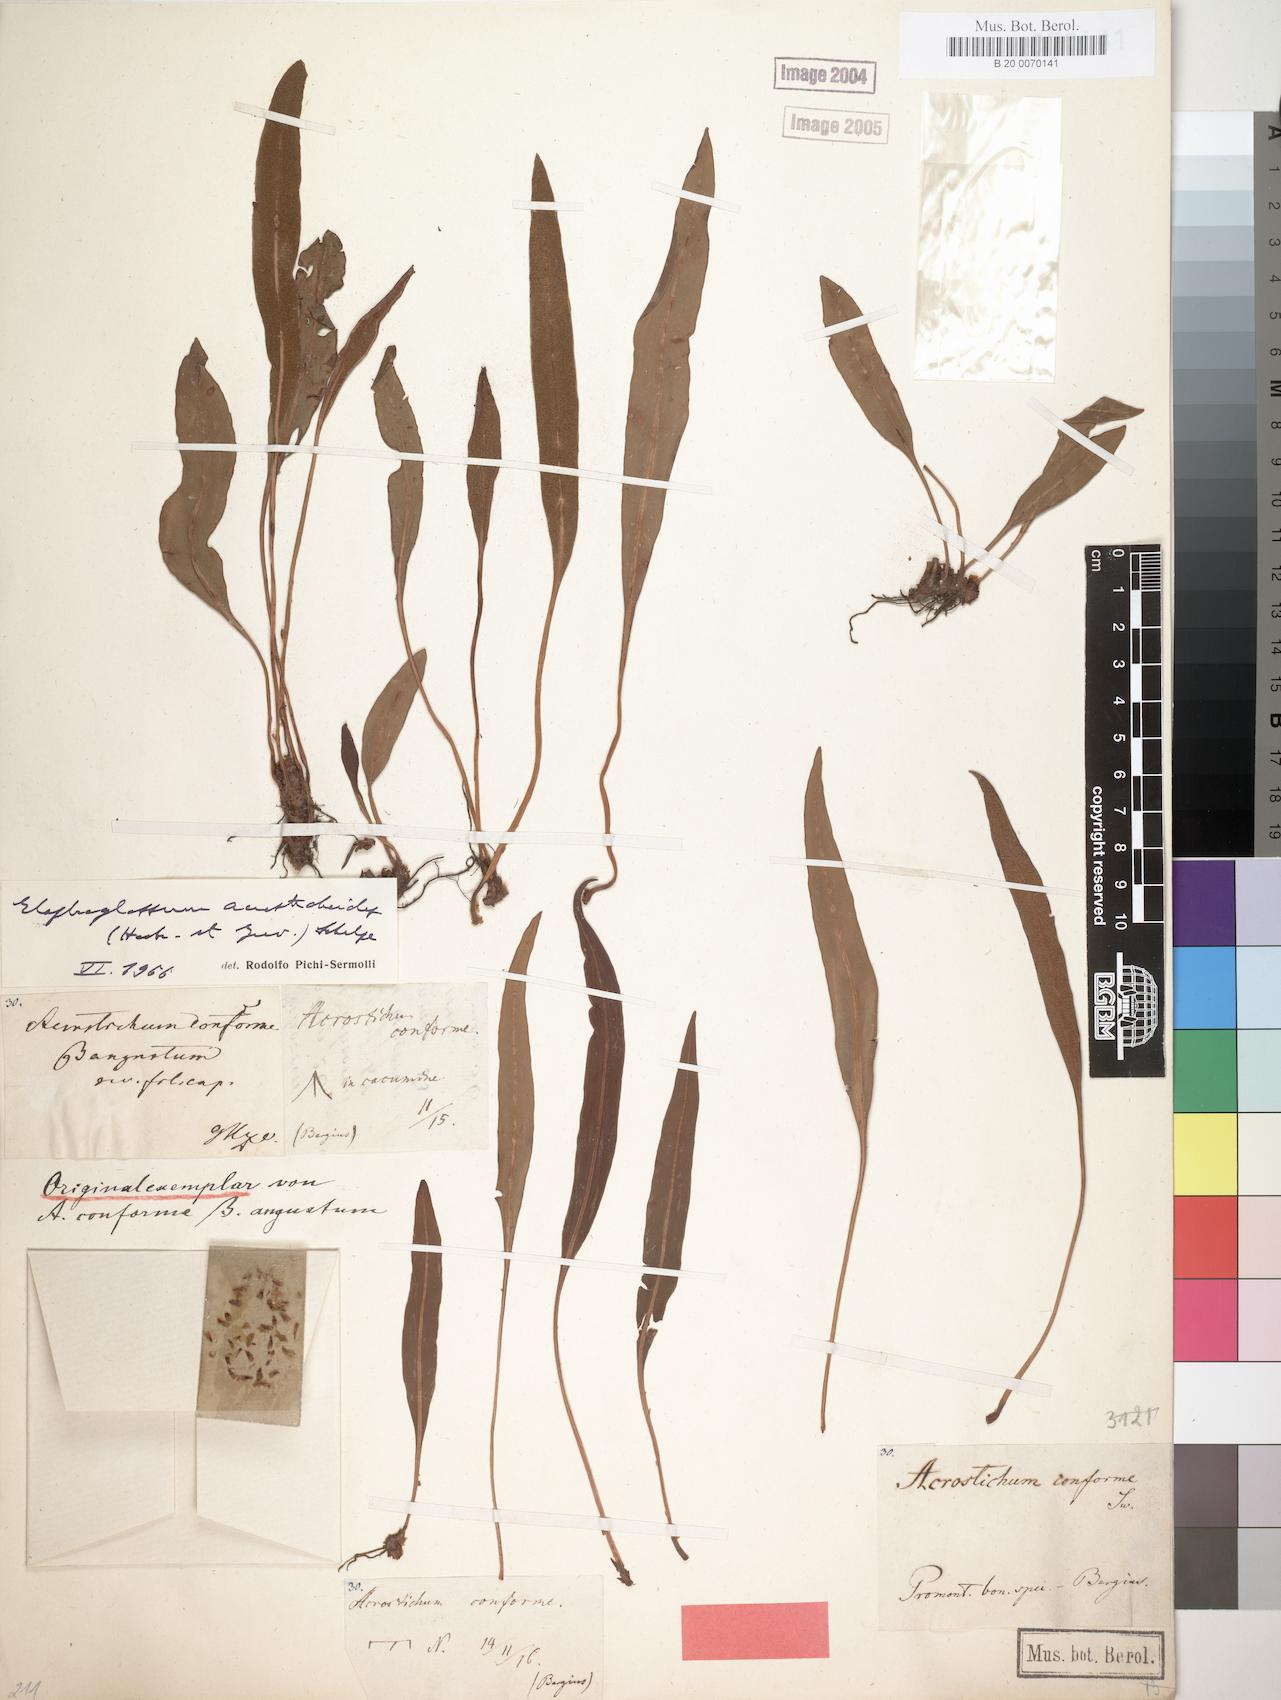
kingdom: Plantae
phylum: Tracheophyta
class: Polypodiopsida
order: Polypodiales
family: Dryopteridaceae
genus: Elaphoglossum
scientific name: Elaphoglossum acrostichoides
